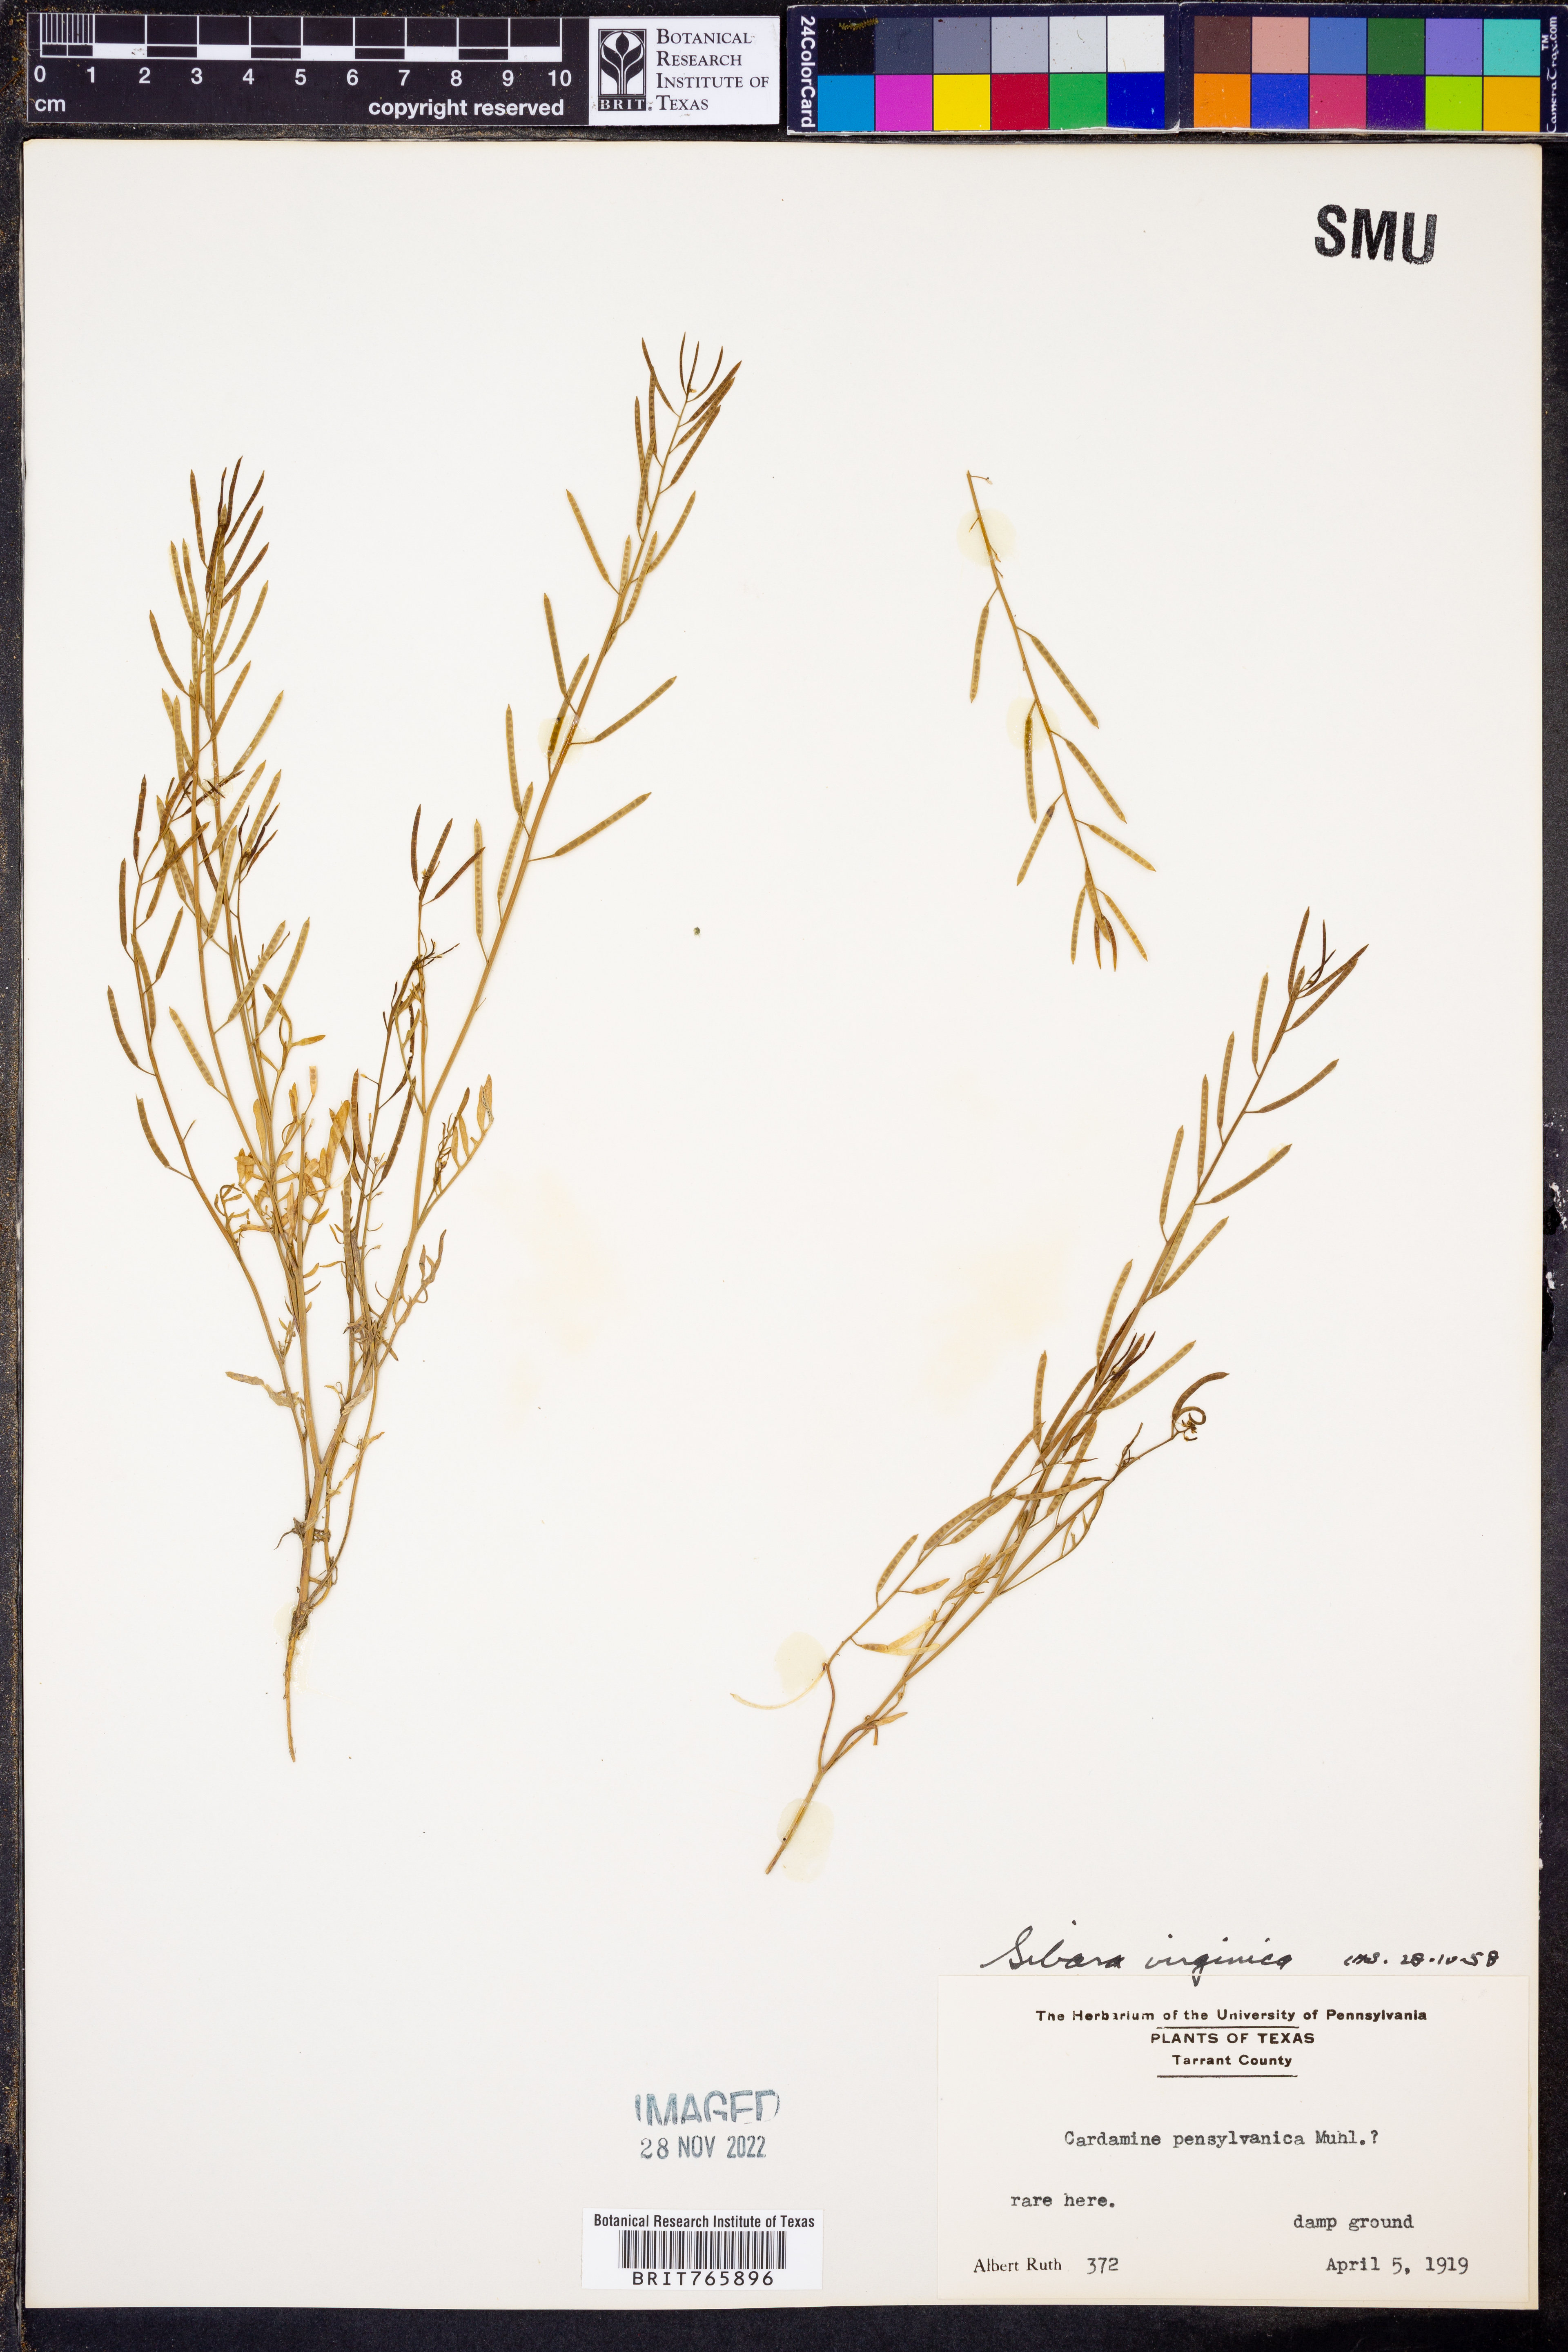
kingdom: Plantae
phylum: Tracheophyta
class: Magnoliopsida
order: Brassicales
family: Brassicaceae
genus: Planodes
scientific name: Planodes virginicum
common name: Virginia cress
